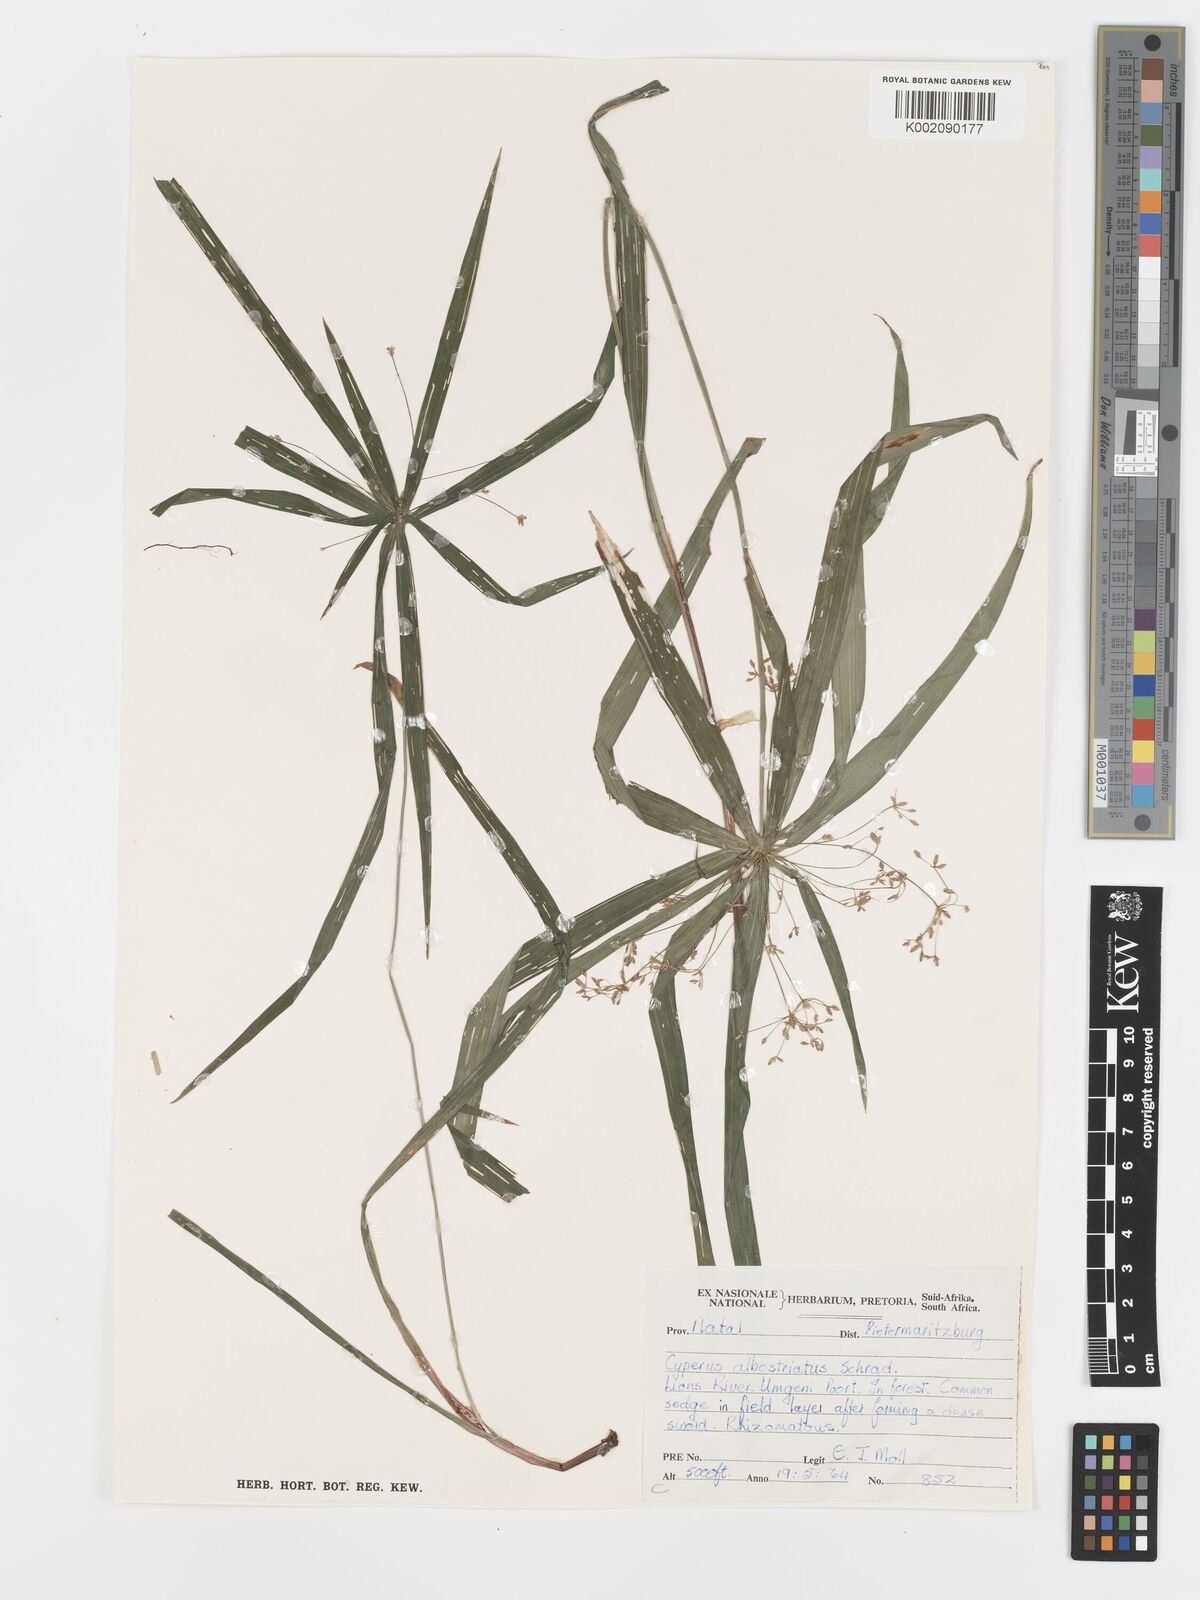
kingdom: Plantae
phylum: Tracheophyta
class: Liliopsida
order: Poales
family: Cyperaceae
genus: Cyperus
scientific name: Cyperus albostriatus
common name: Dwarf umbrella-grass
